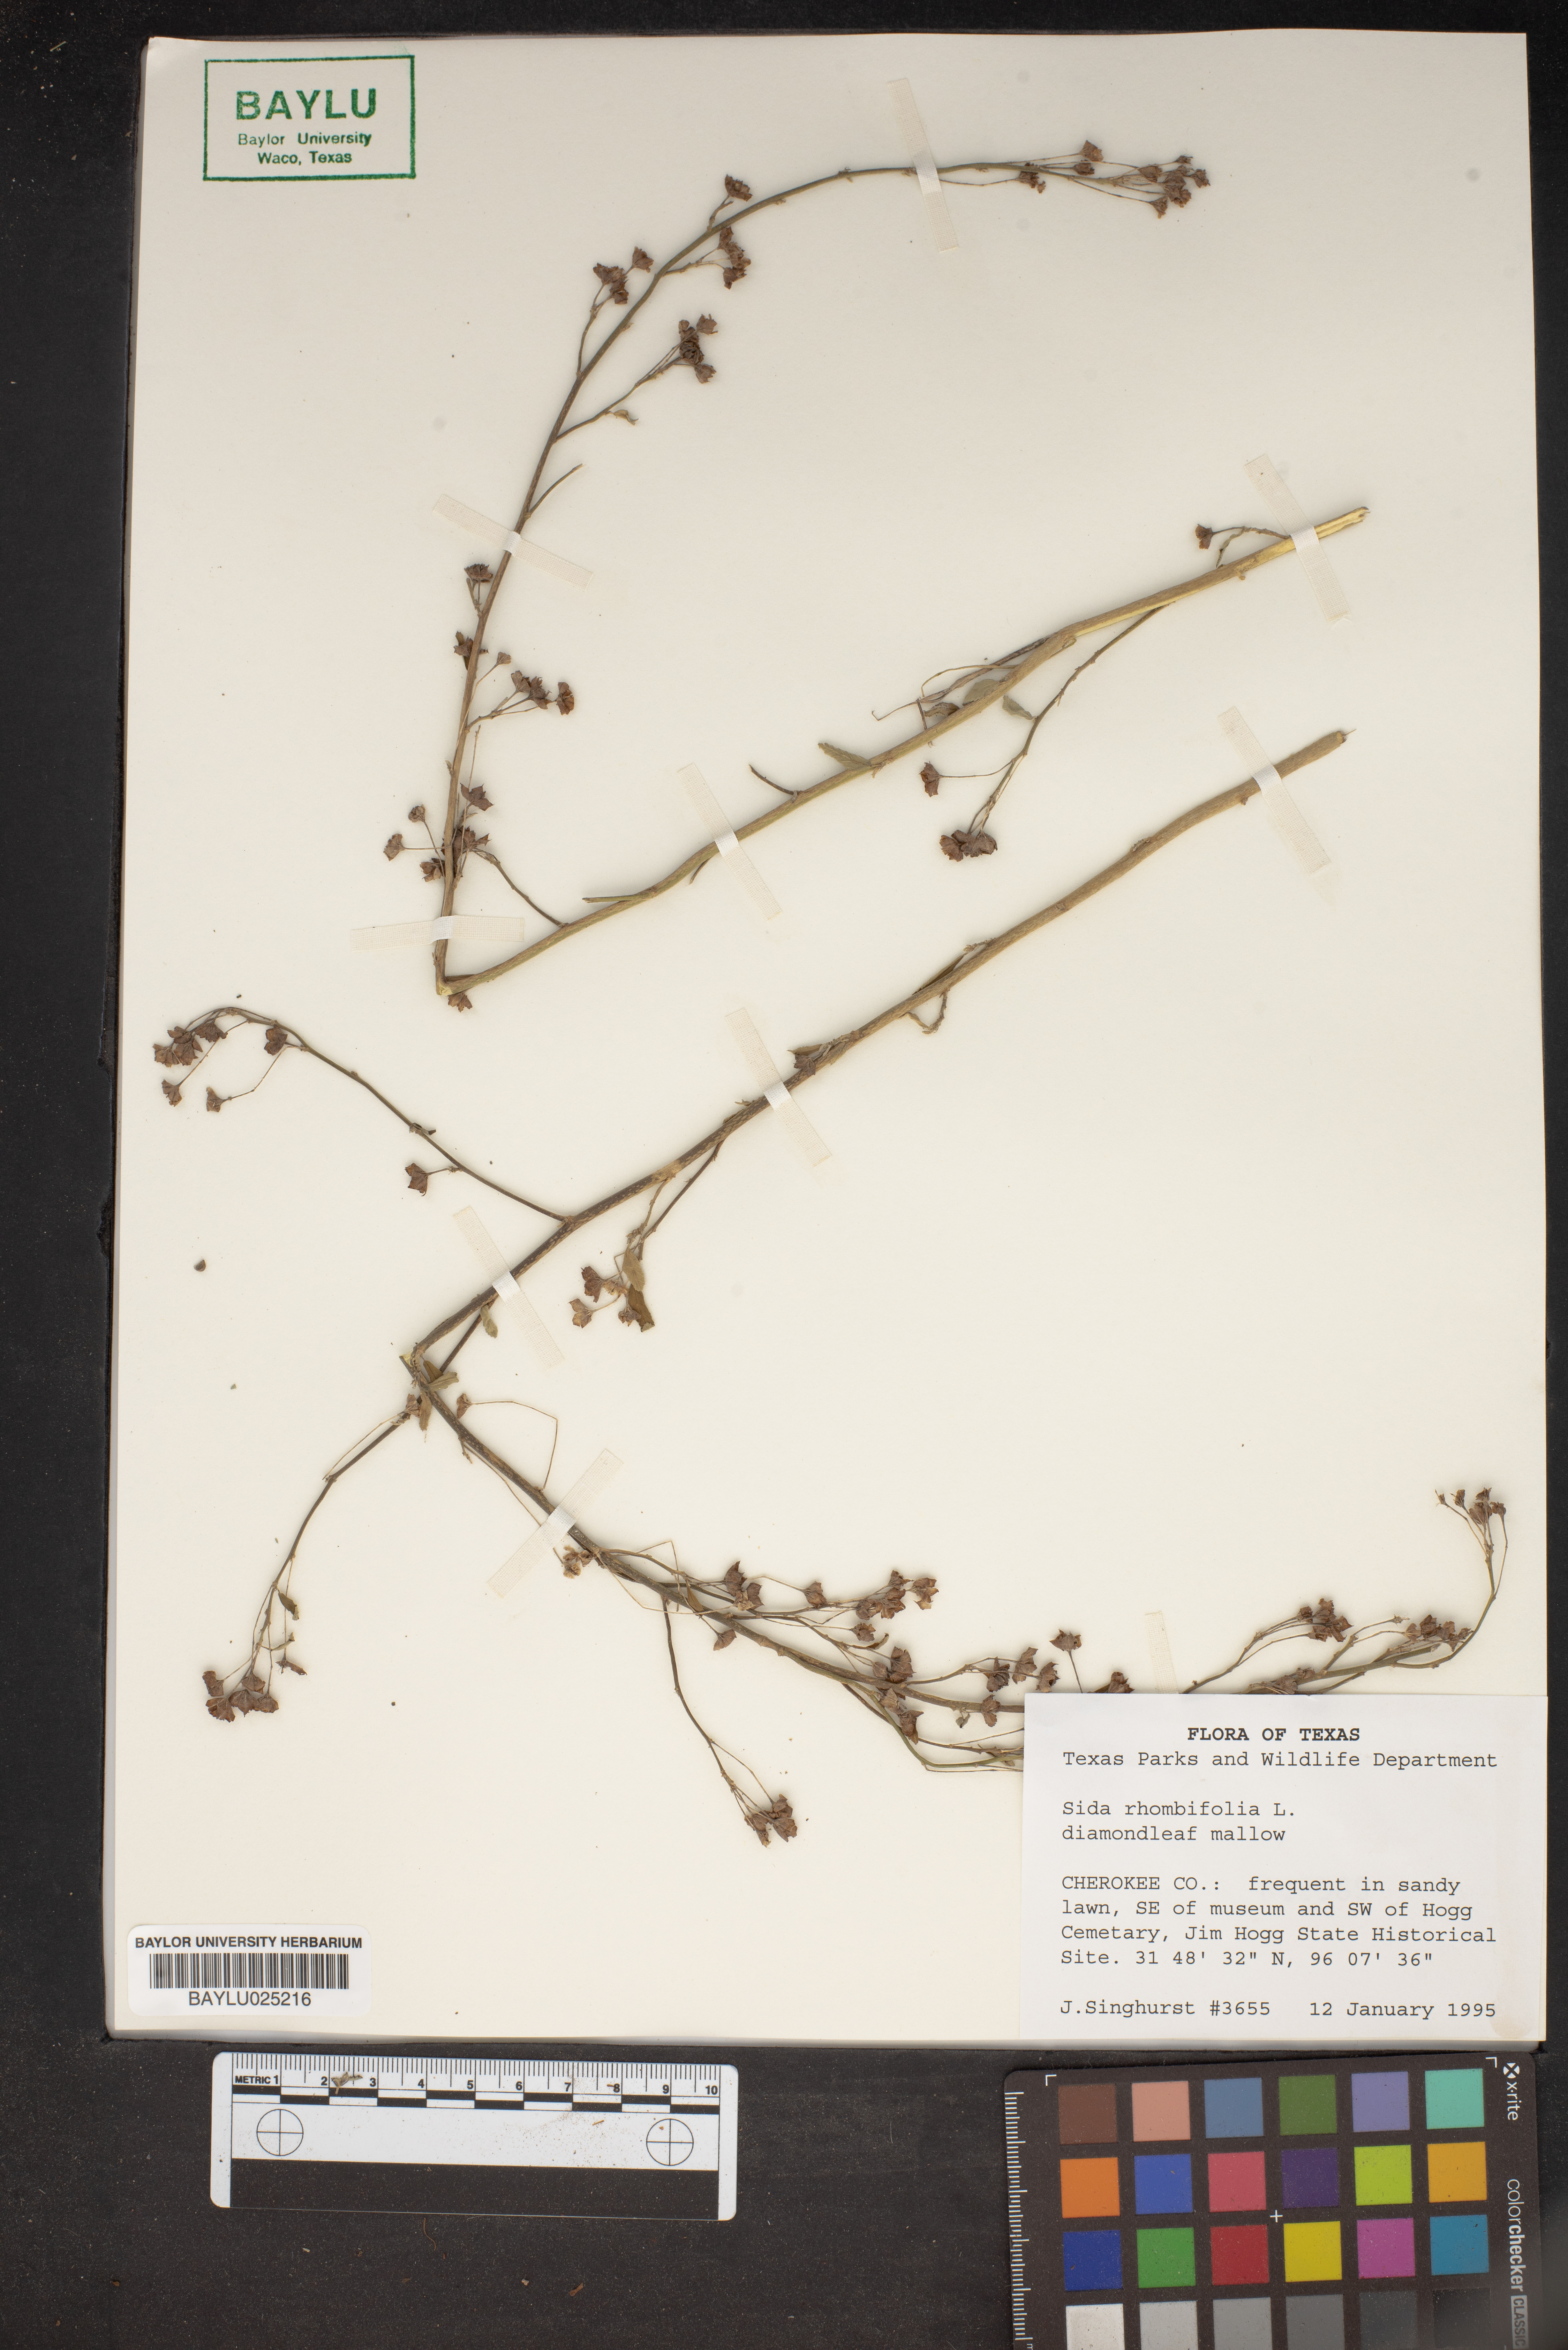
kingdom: Plantae
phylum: Tracheophyta
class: Magnoliopsida
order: Malvales
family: Malvaceae
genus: Sida
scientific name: Sida rhombifolia
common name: Queensland-hemp
